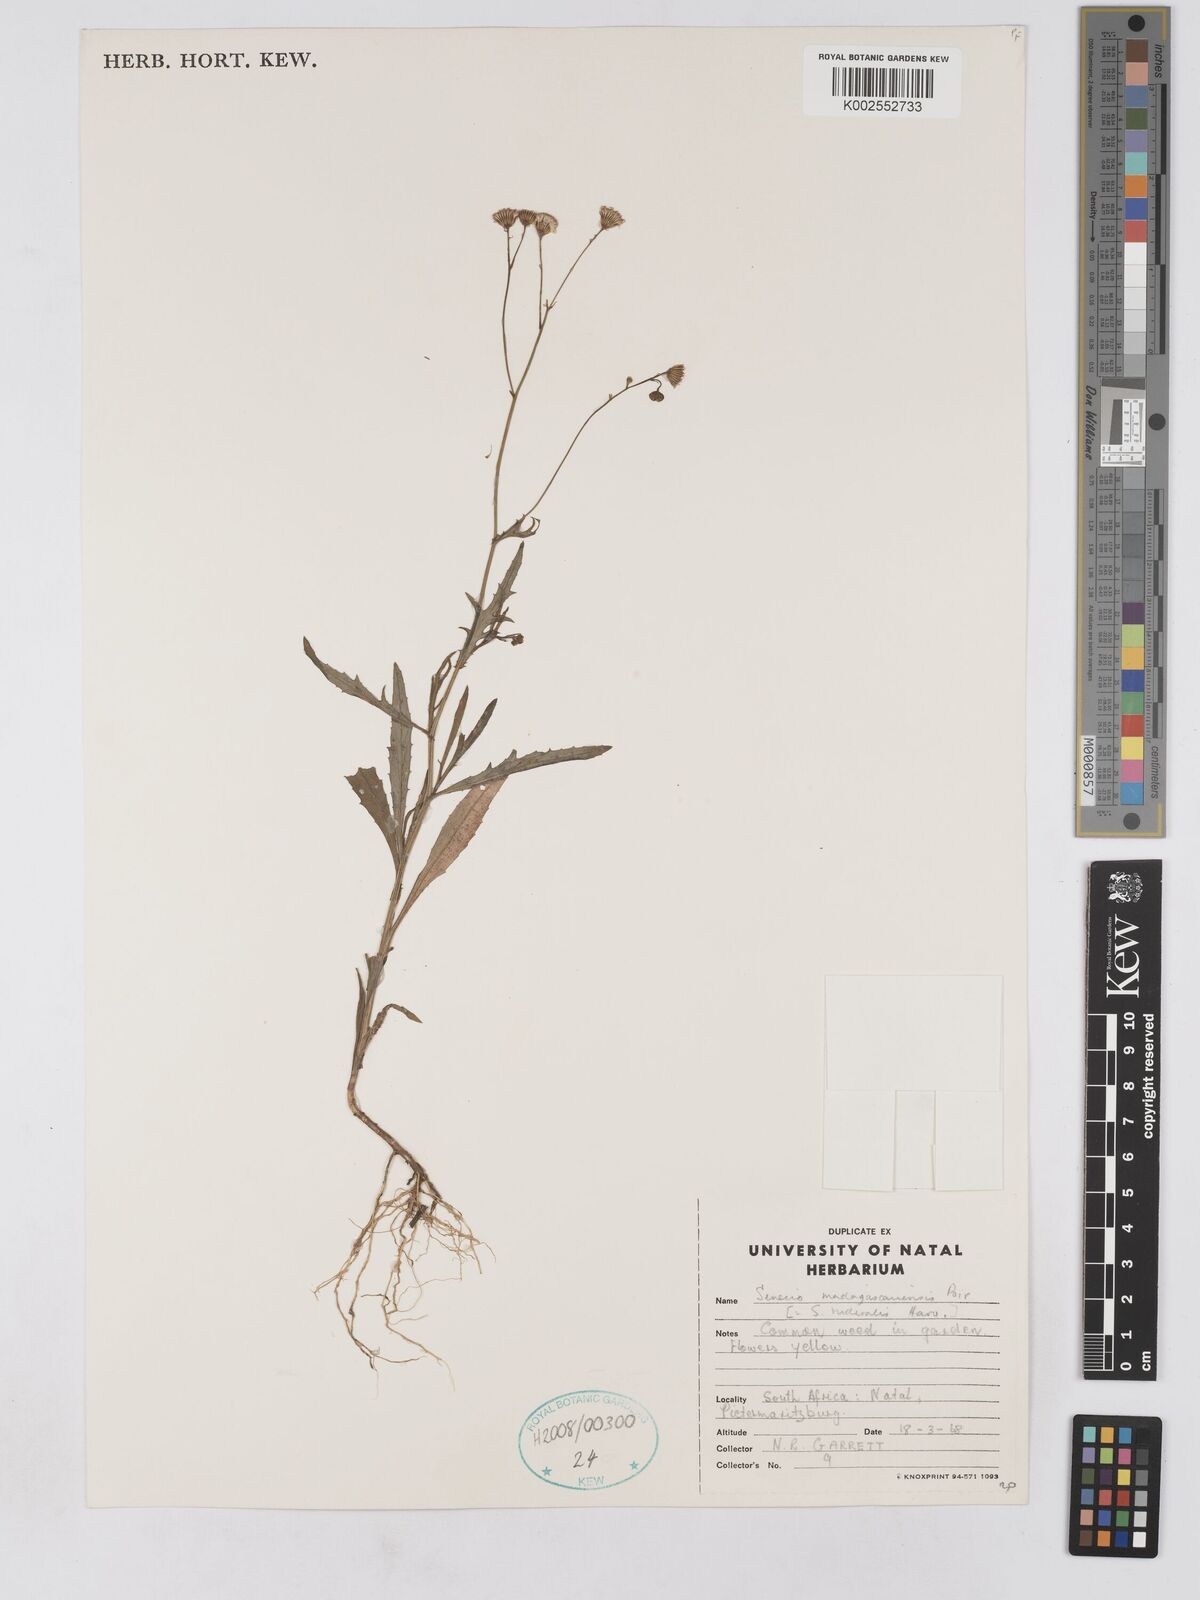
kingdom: Plantae
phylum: Tracheophyta
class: Magnoliopsida
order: Asterales
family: Asteraceae
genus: Senecio
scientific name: Senecio madagascariensis
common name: Madagascar ragwort
